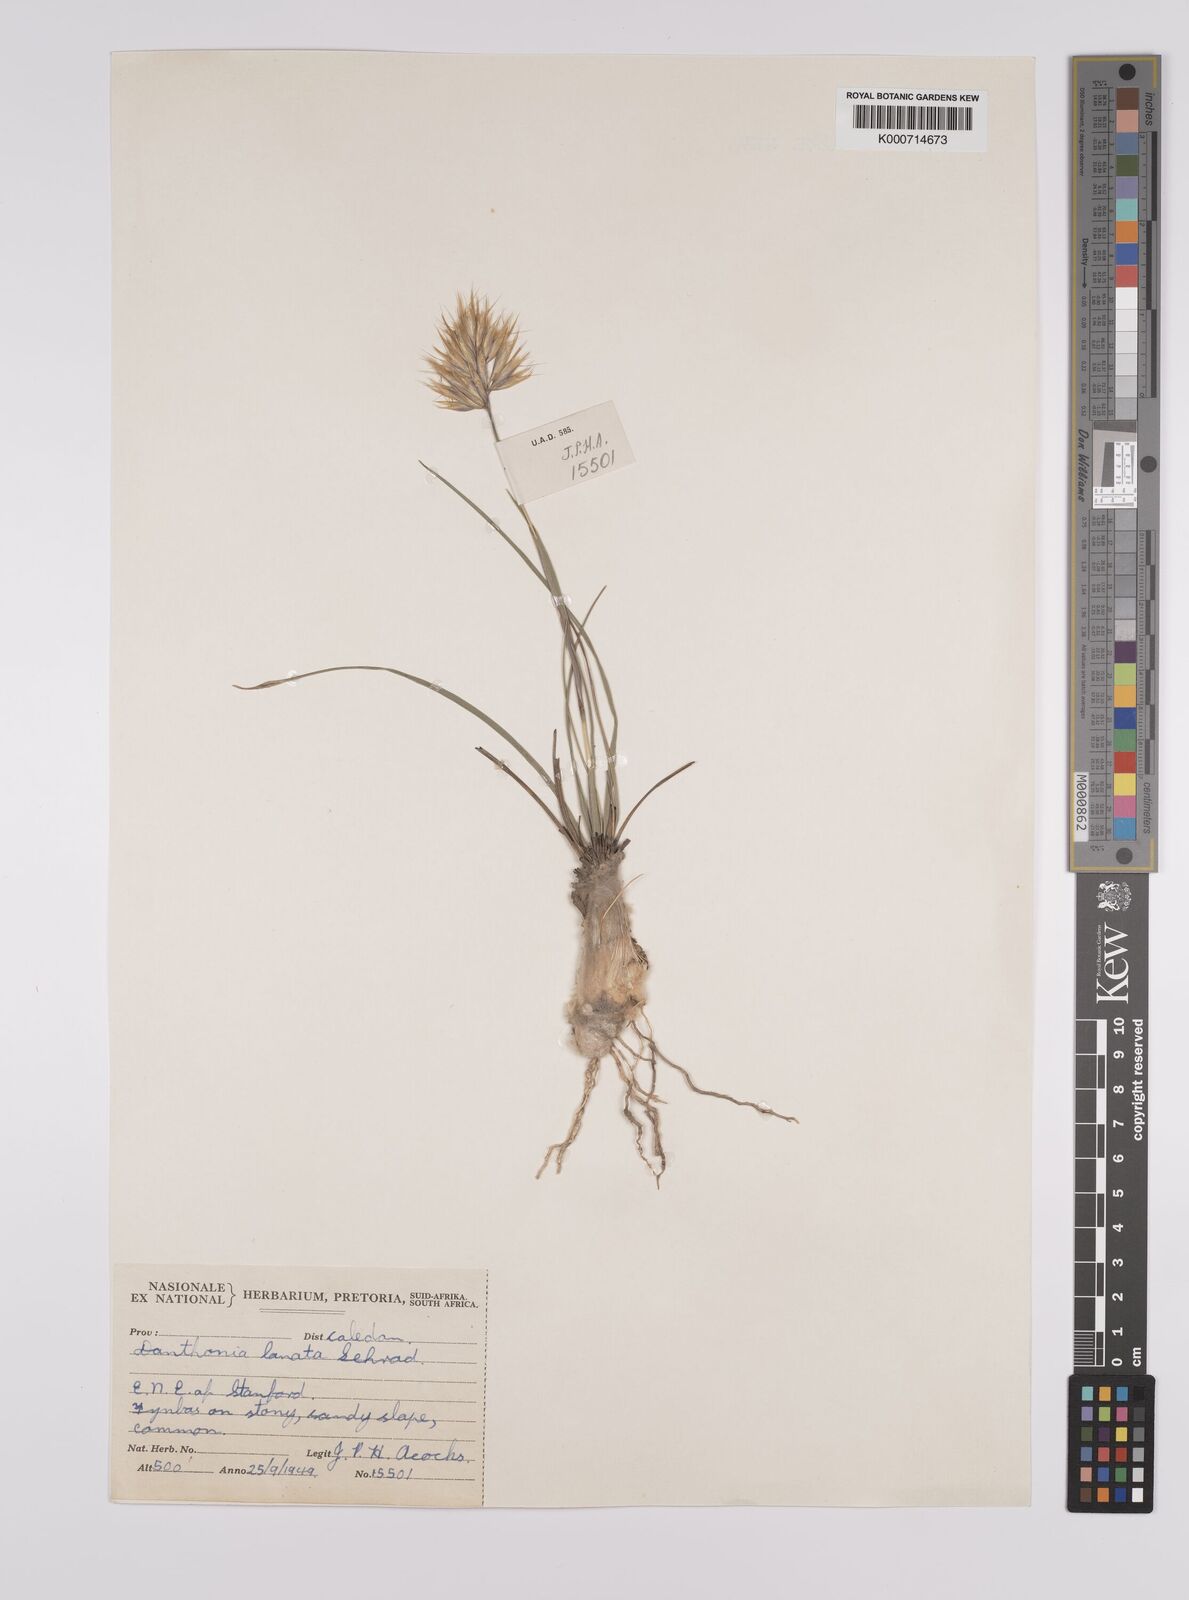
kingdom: Plantae
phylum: Tracheophyta
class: Liliopsida
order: Poales
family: Poaceae
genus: Rytidosperma
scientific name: Rytidosperma
